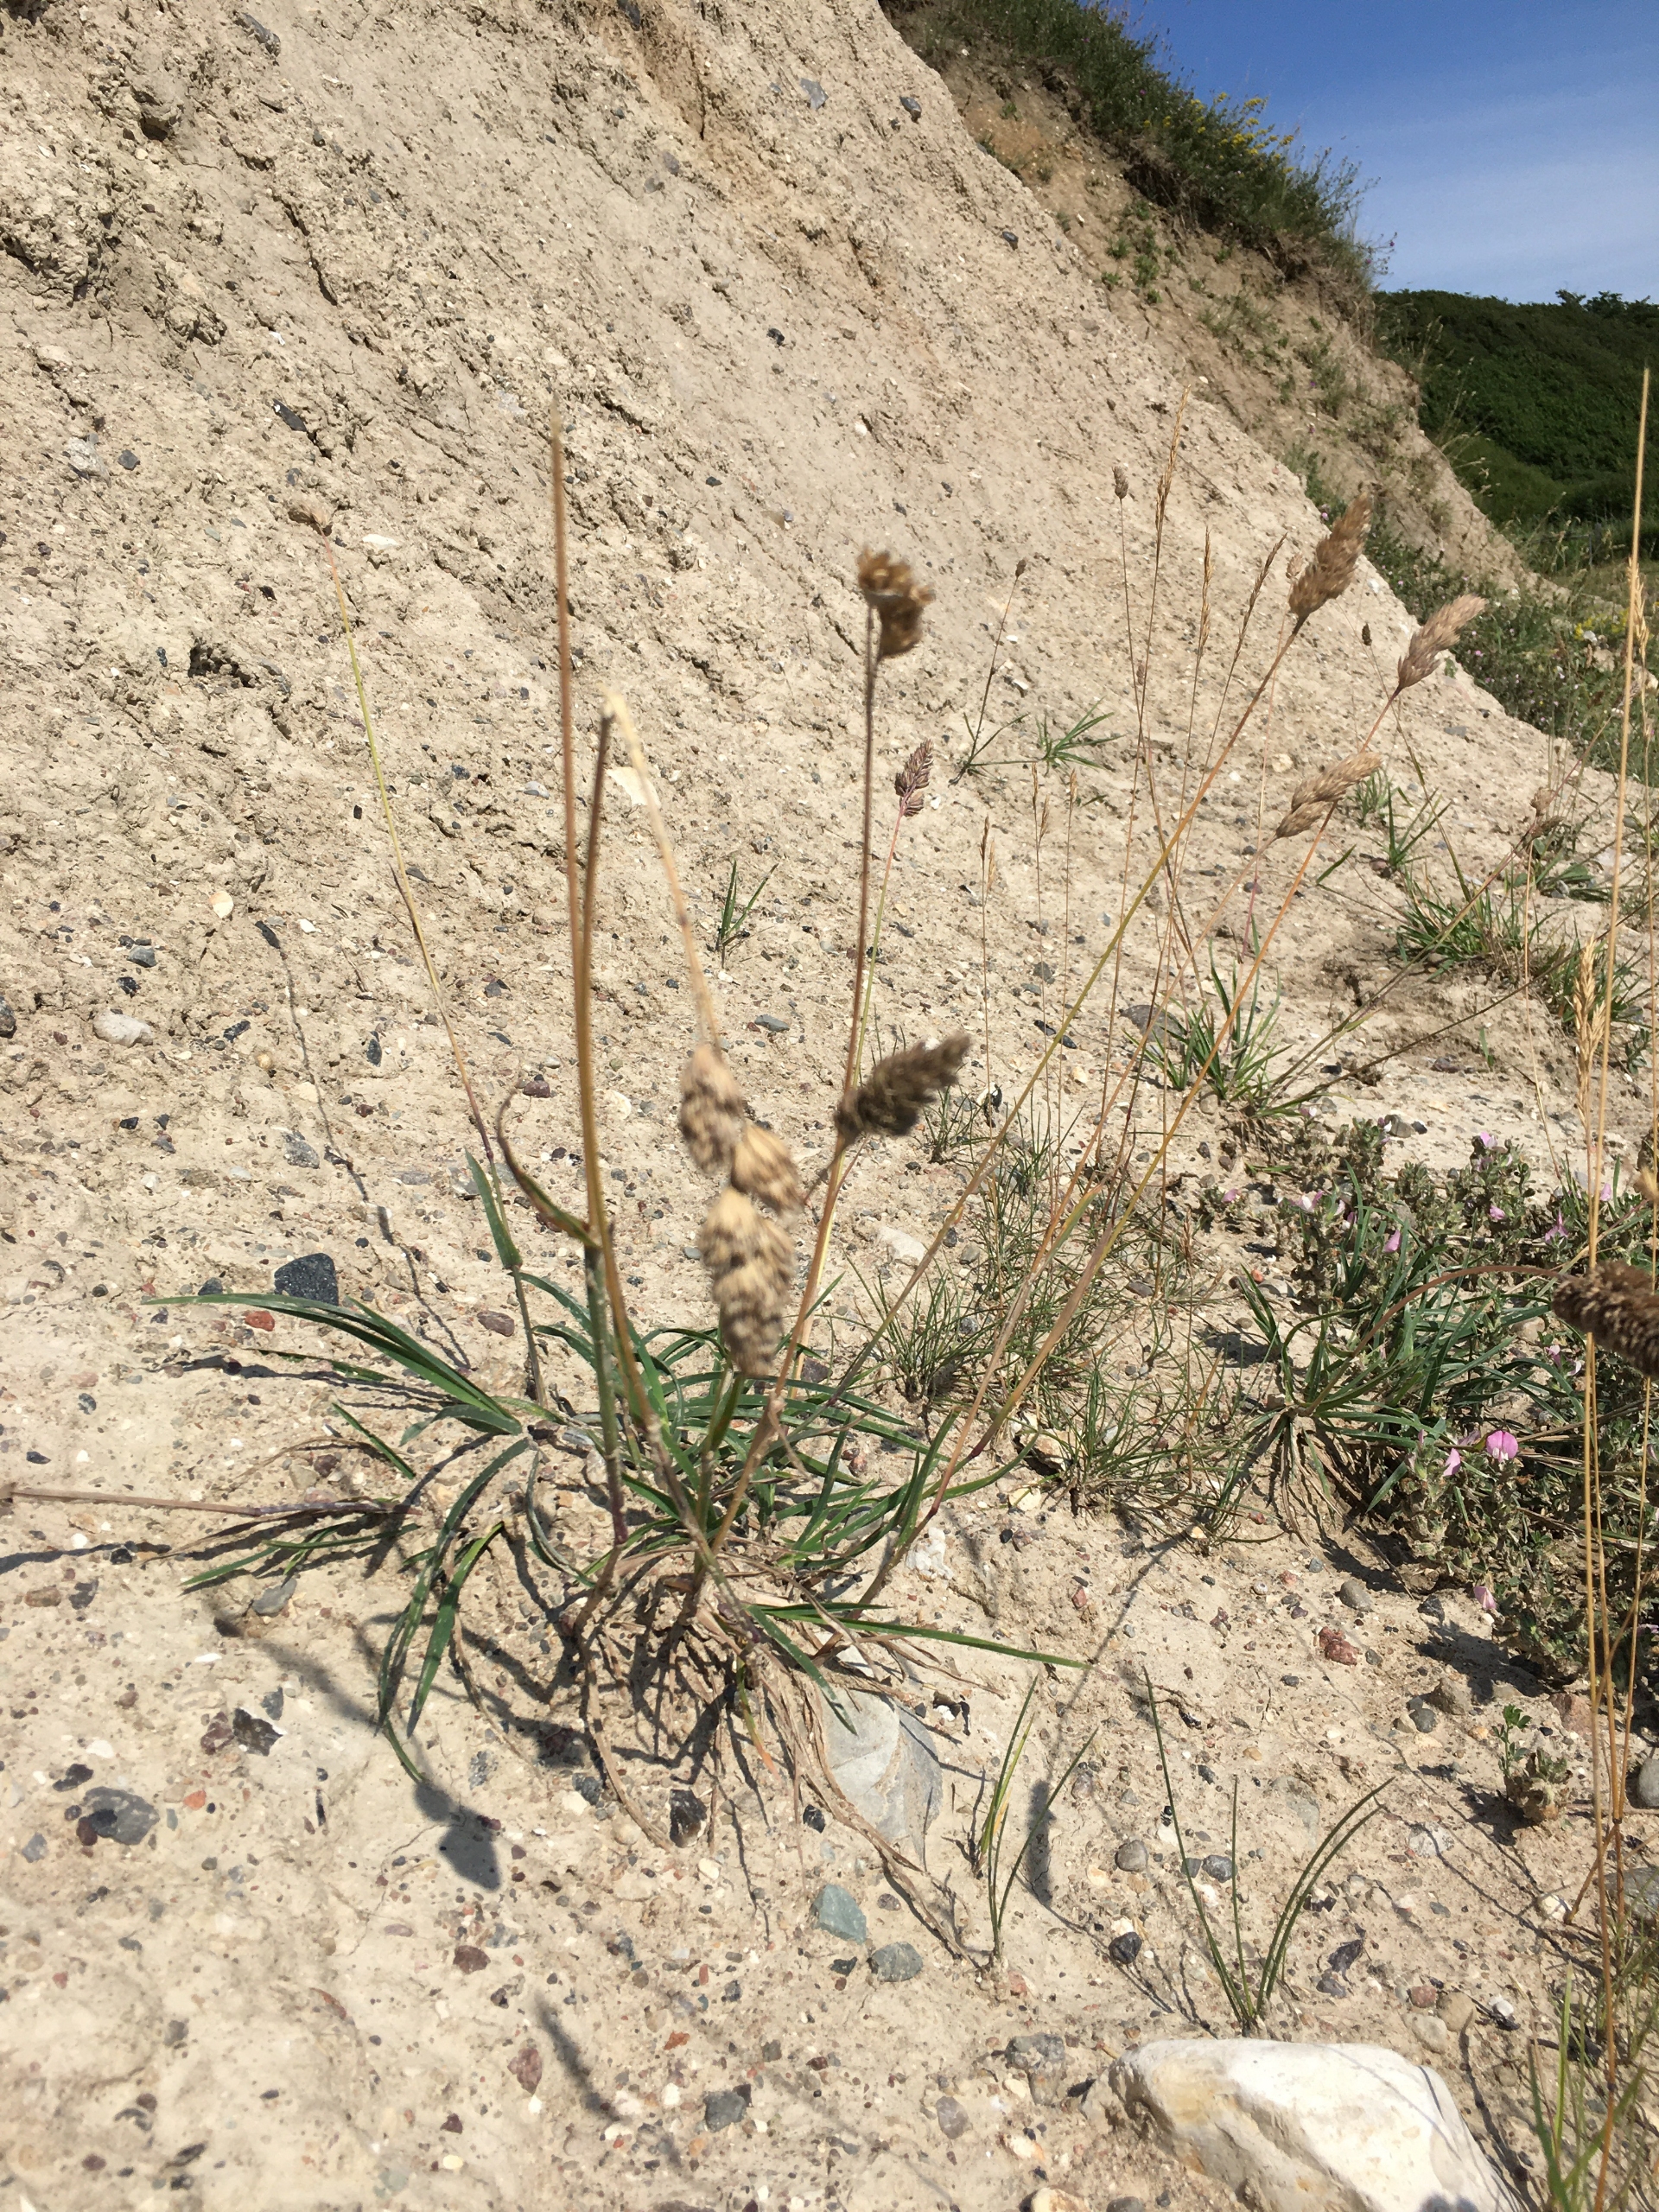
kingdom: Plantae
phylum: Tracheophyta
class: Liliopsida
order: Poales
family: Poaceae
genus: Dactylis
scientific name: Dactylis glomerata
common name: Almindelig hundegræs
